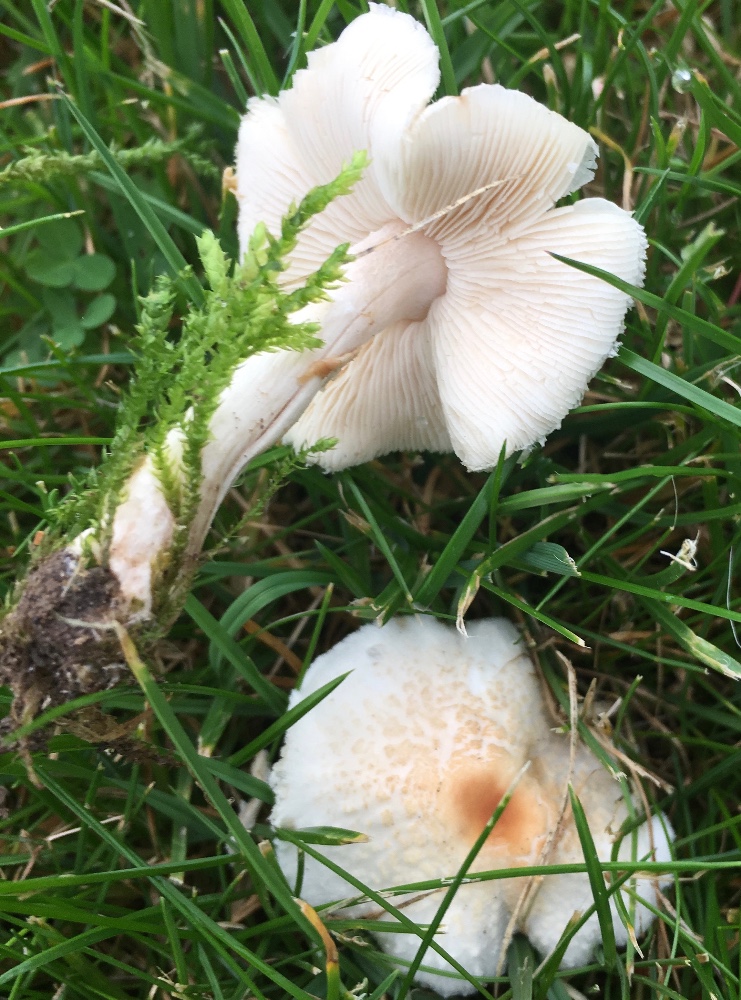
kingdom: Fungi
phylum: Basidiomycota
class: Agaricomycetes
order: Agaricales
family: Agaricaceae
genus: Lepiota
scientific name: Lepiota cristata
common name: stinkende parasolhat
